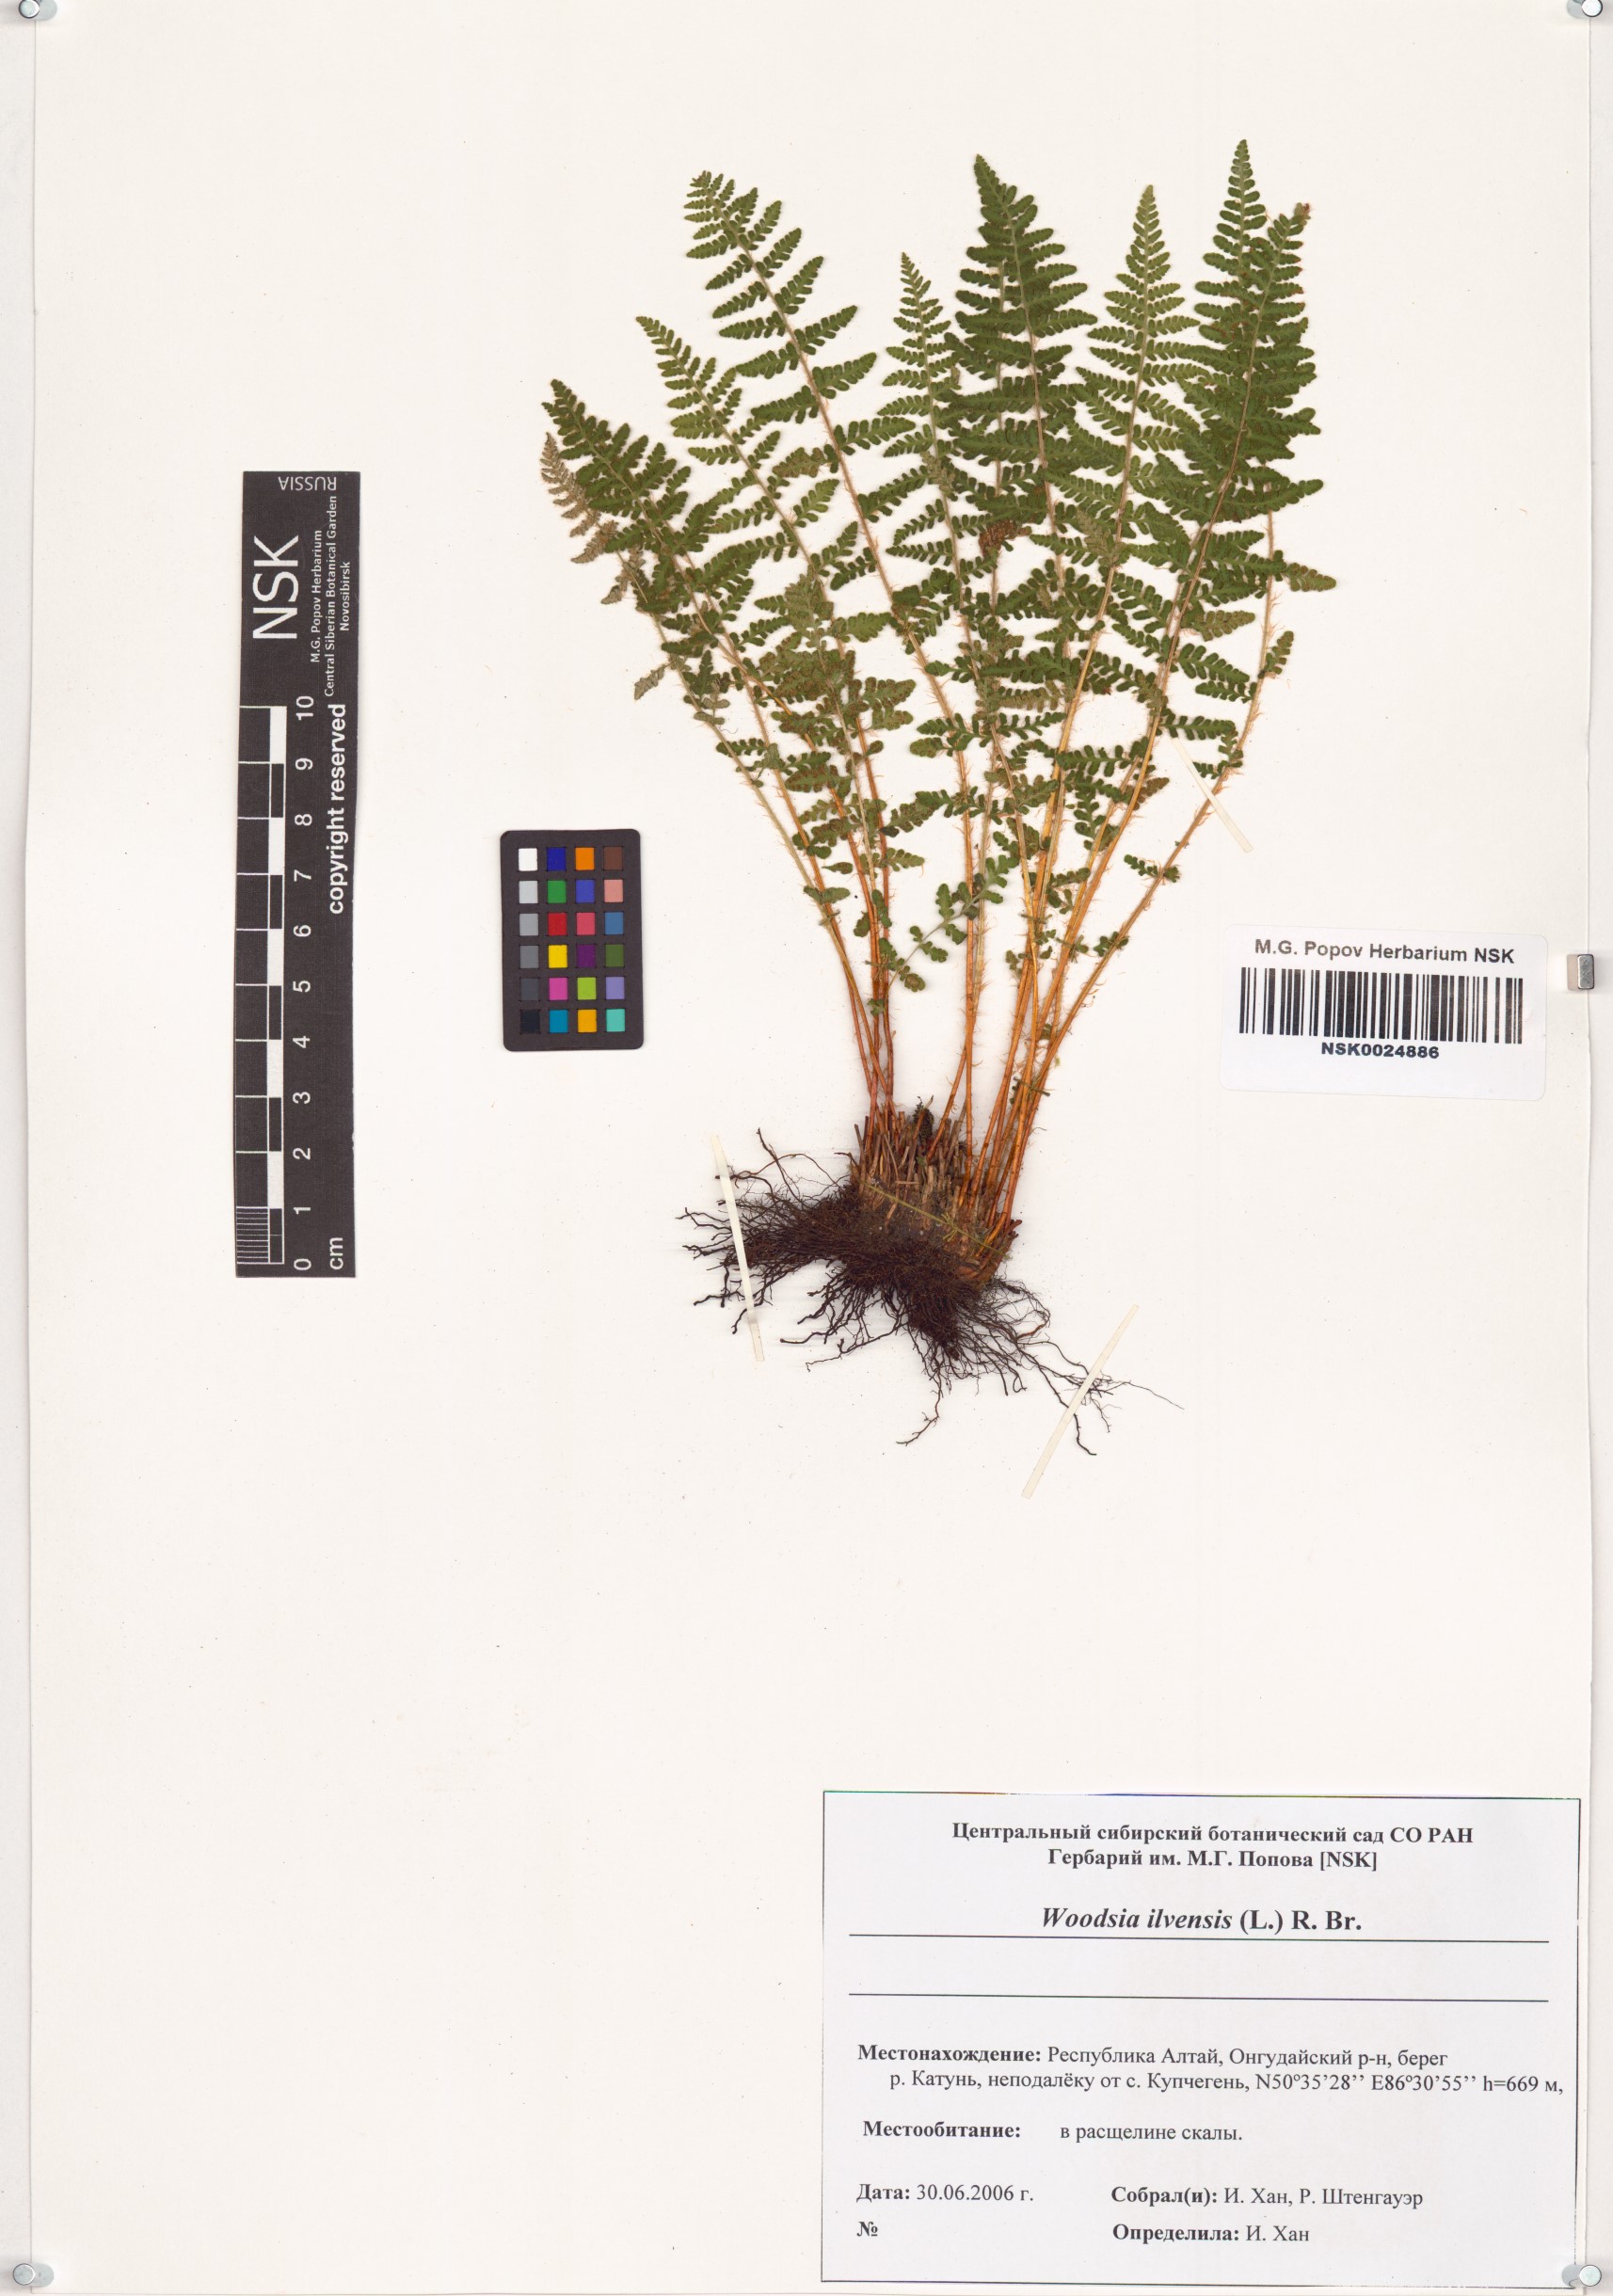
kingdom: Plantae
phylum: Tracheophyta
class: Polypodiopsida
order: Polypodiales
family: Woodsiaceae
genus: Woodsia
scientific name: Woodsia ilvensis
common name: Fragrant woodsia
